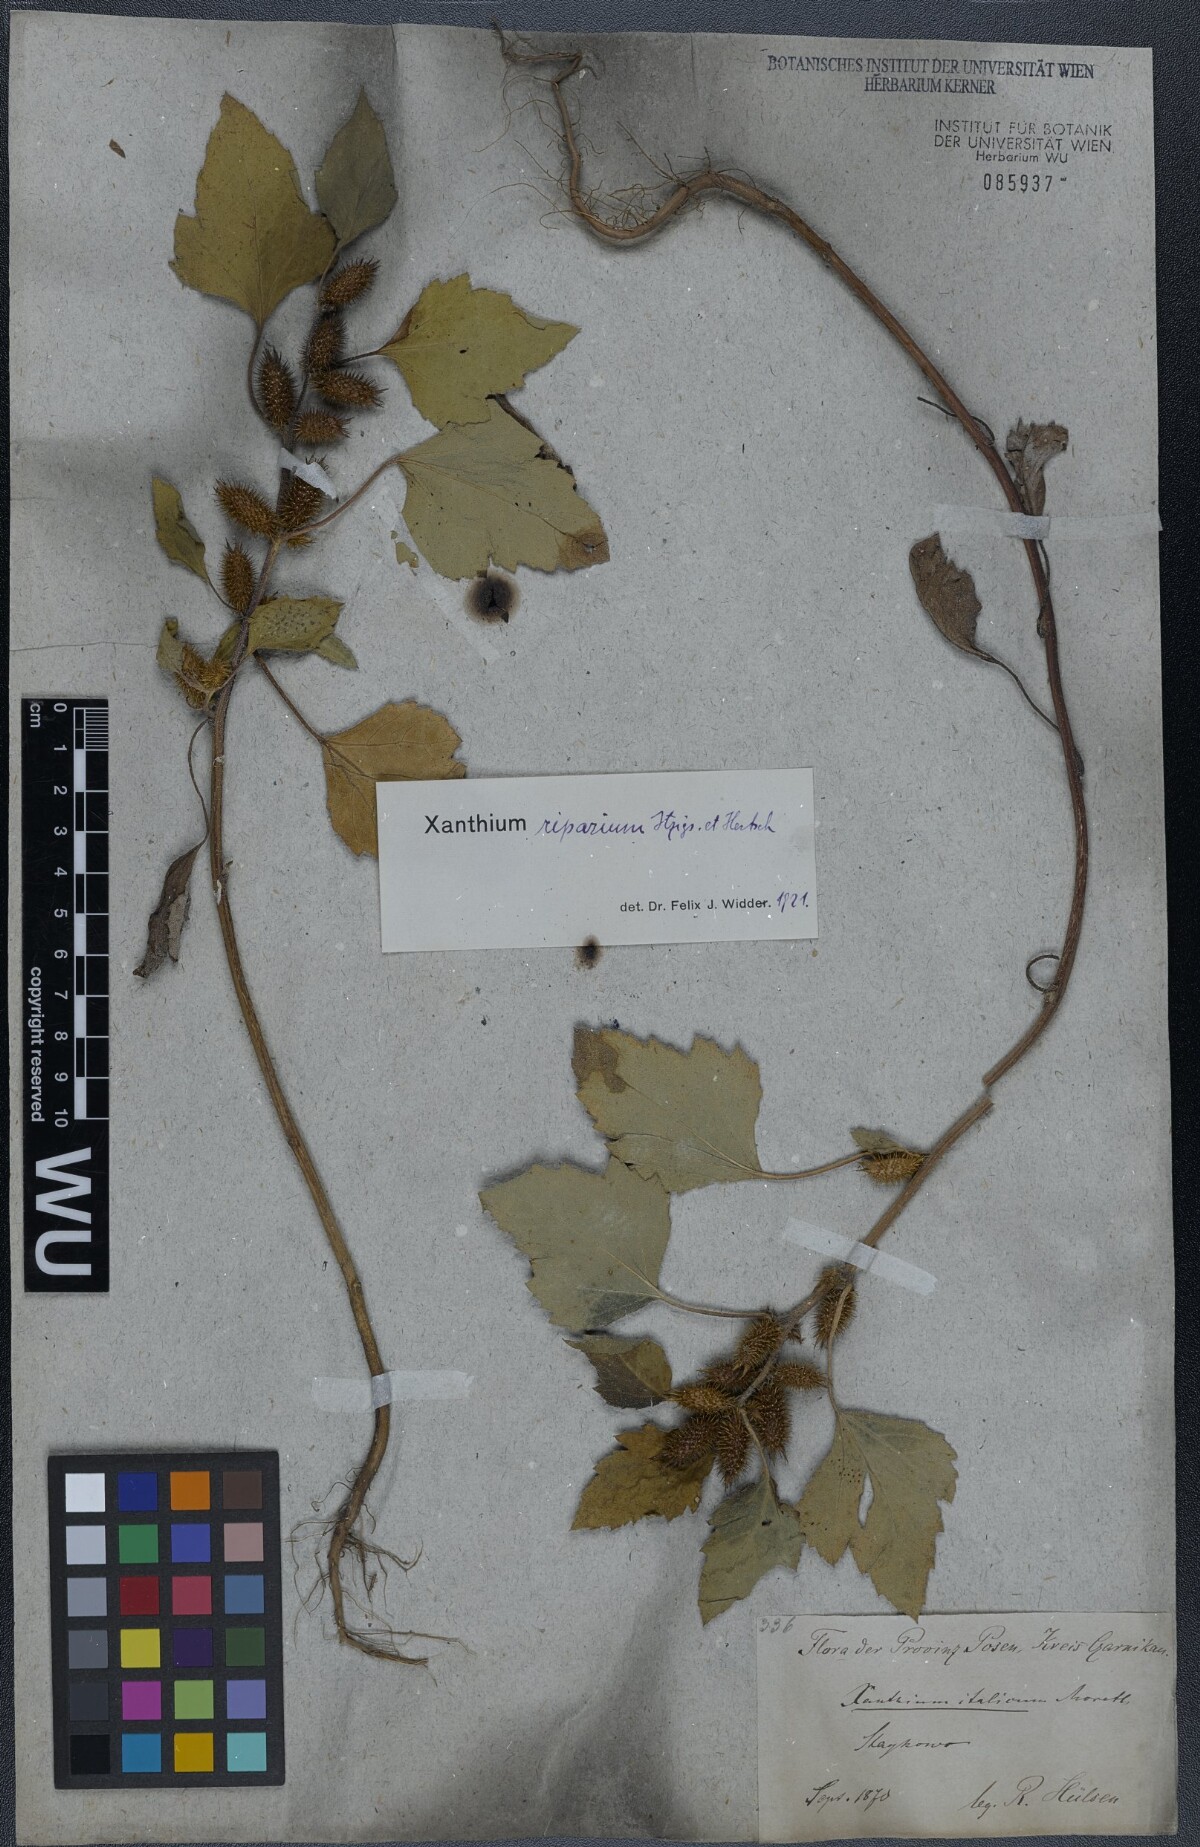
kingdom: Plantae
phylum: Tracheophyta
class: Magnoliopsida
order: Asterales
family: Asteraceae
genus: Xanthium
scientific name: Xanthium orientale
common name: Californian burr
